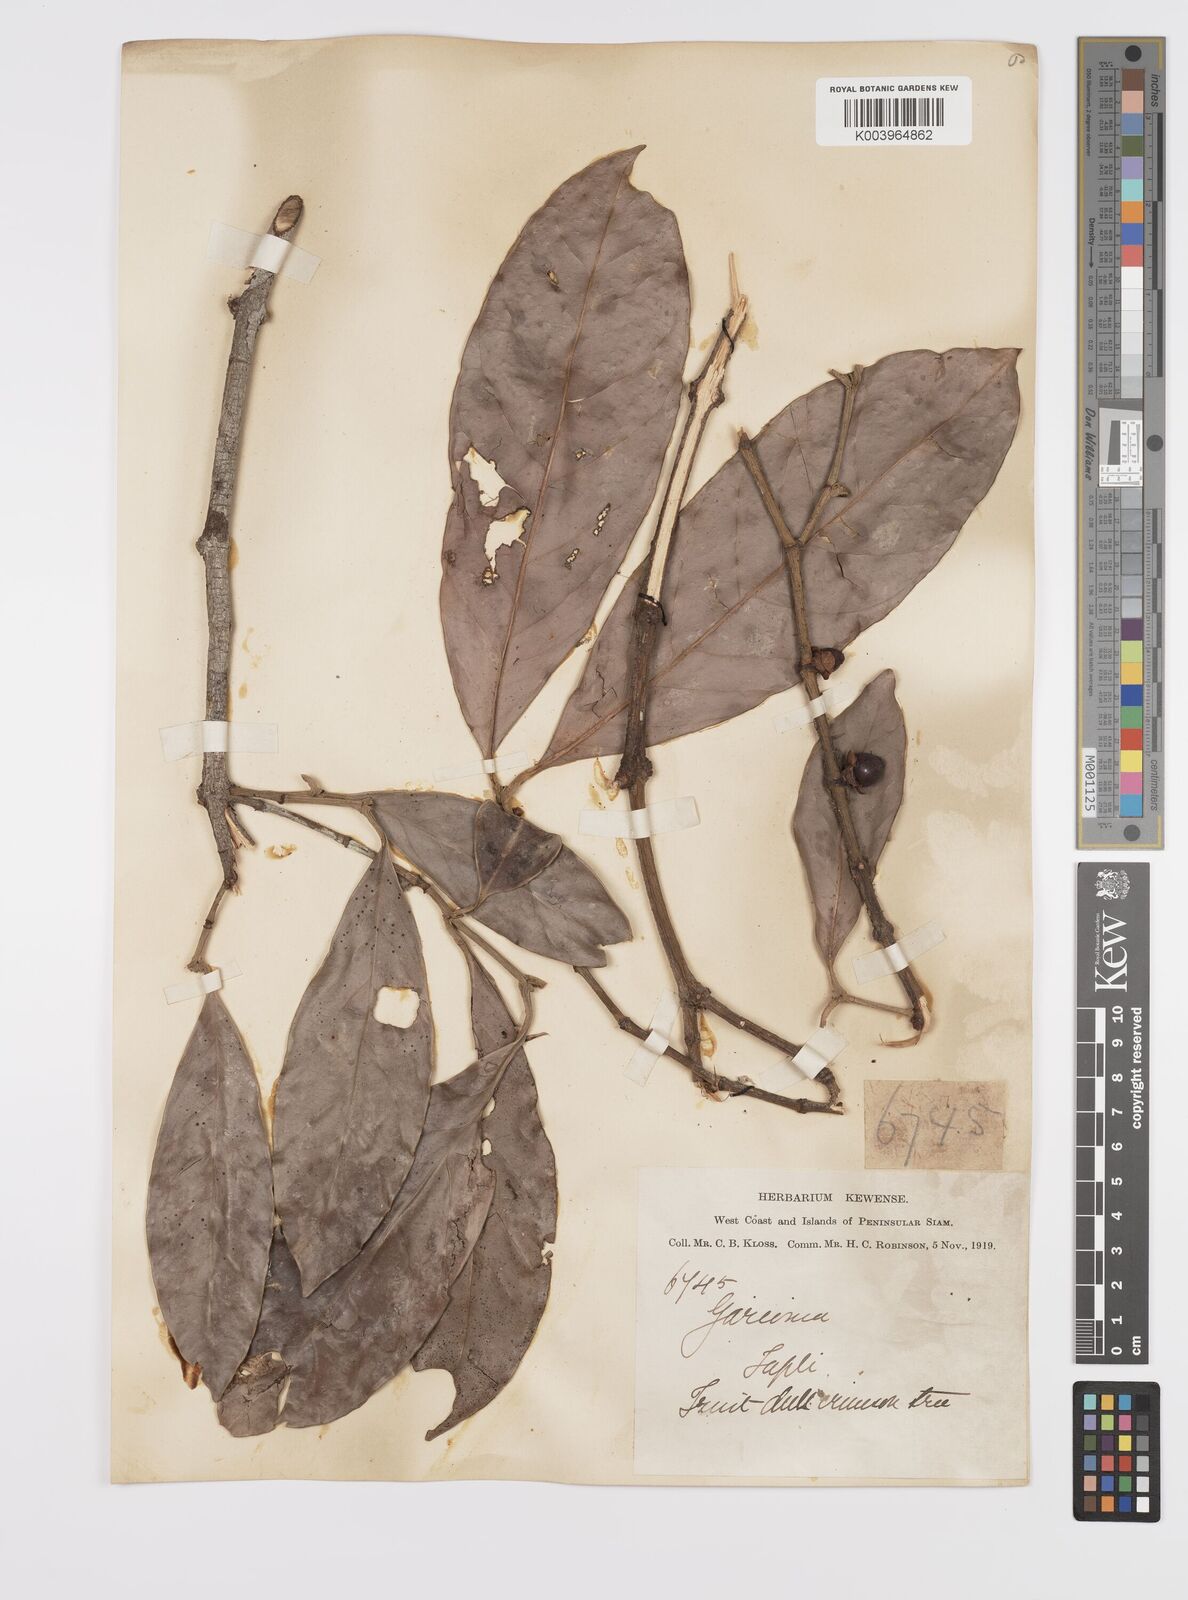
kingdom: Plantae
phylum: Tracheophyta
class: Magnoliopsida
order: Malpighiales
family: Clusiaceae
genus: Garcinia
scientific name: Garcinia
